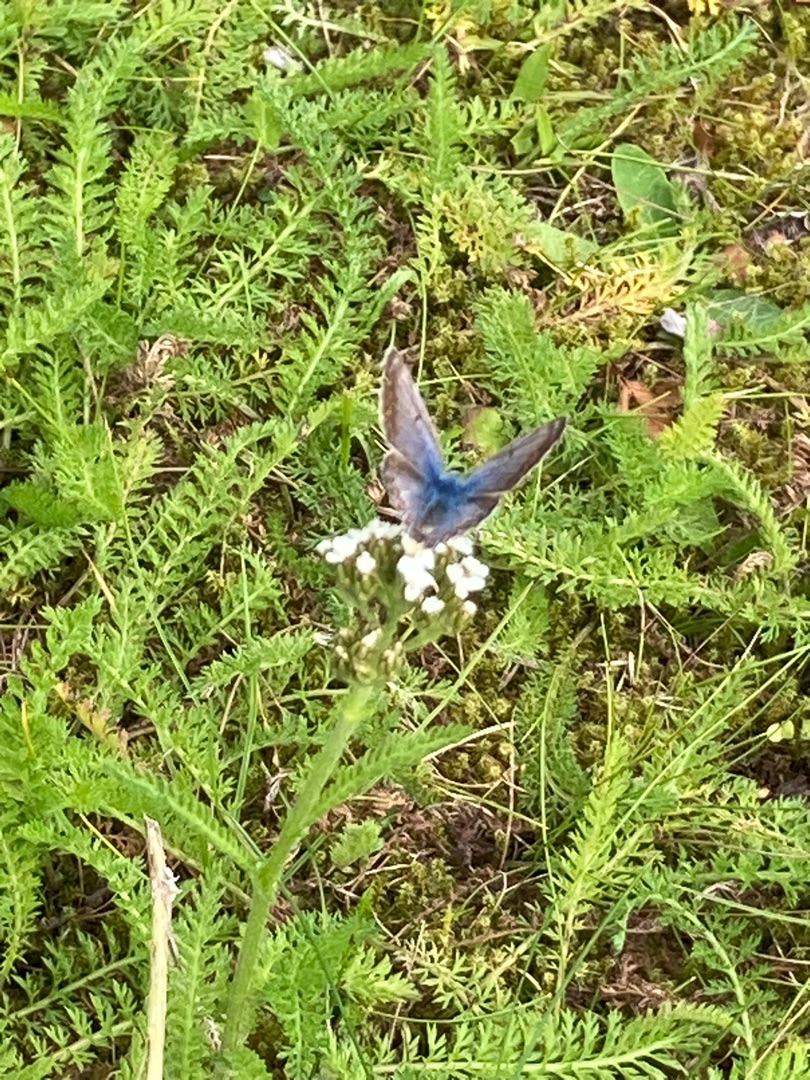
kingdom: Animalia
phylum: Arthropoda
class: Insecta
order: Lepidoptera
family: Lycaenidae
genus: Polyommatus
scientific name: Polyommatus icarus
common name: Almindelig blåfugl
